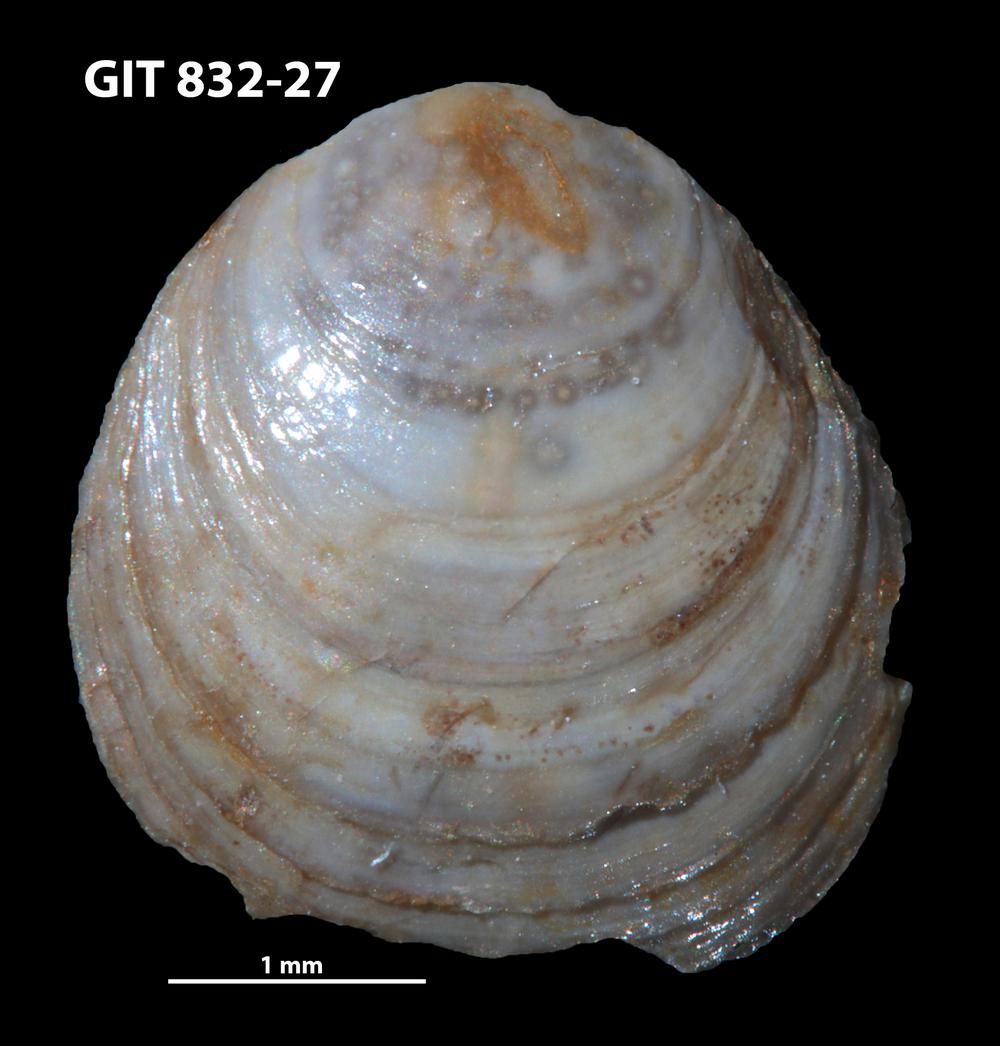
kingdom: Animalia
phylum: Brachiopoda
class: Lingulata
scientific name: Lingulata
